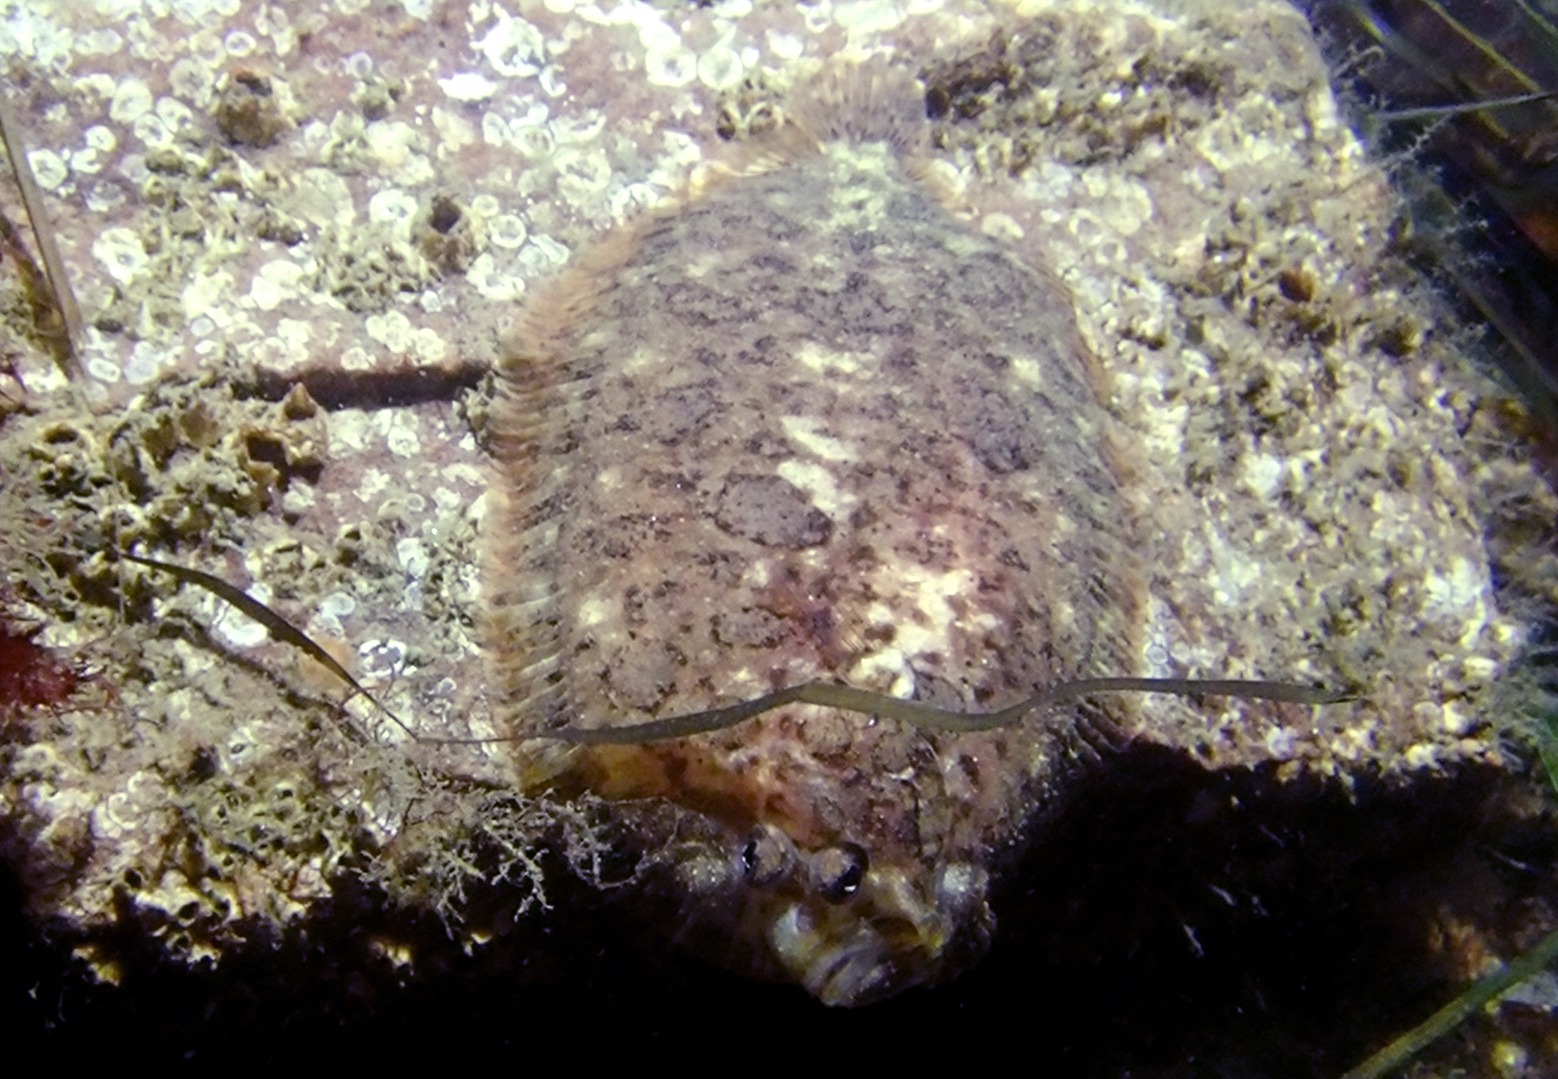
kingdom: Animalia
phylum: Chordata
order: Pleuronectiformes
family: Scophthalmidae
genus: Zeugopterus
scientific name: Zeugopterus punctatus
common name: Hårhvarre
